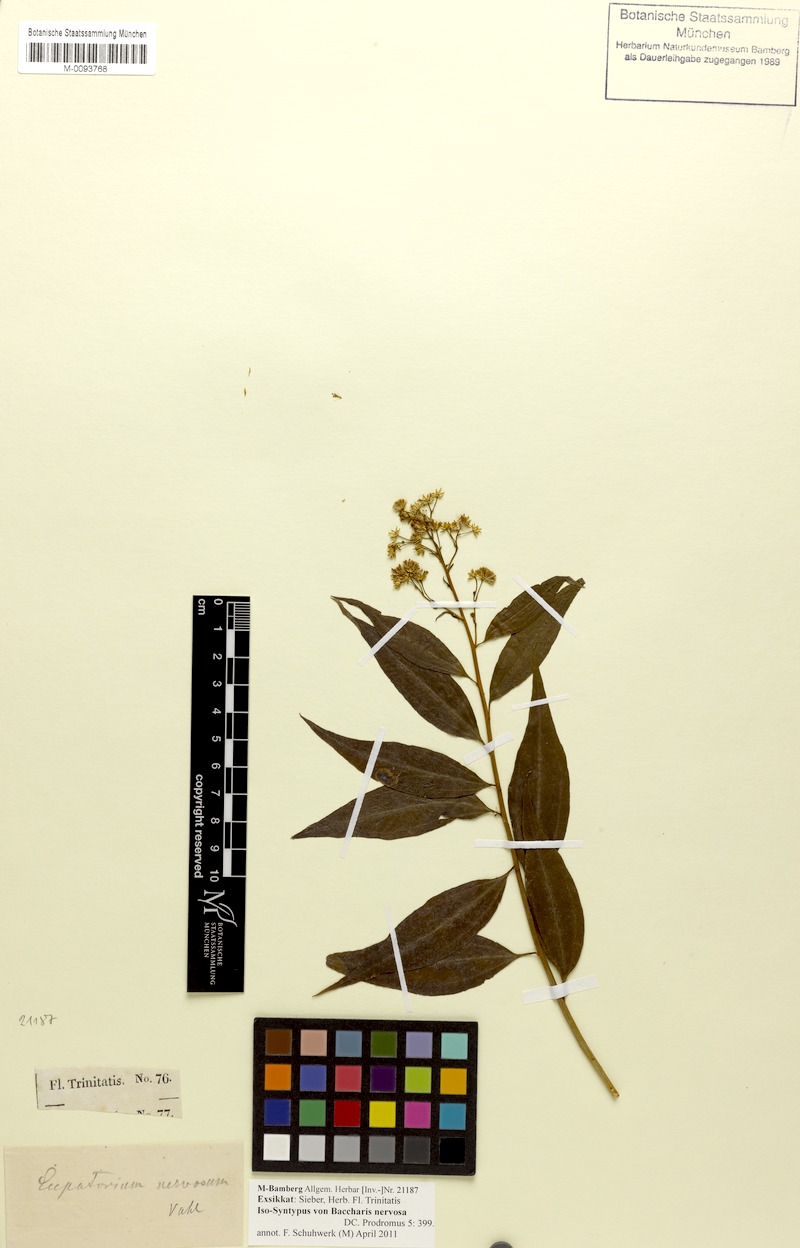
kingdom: Plantae
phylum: Tracheophyta
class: Magnoliopsida
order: Asterales
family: Asteraceae
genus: Baccharis
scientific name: Baccharis nervosa
